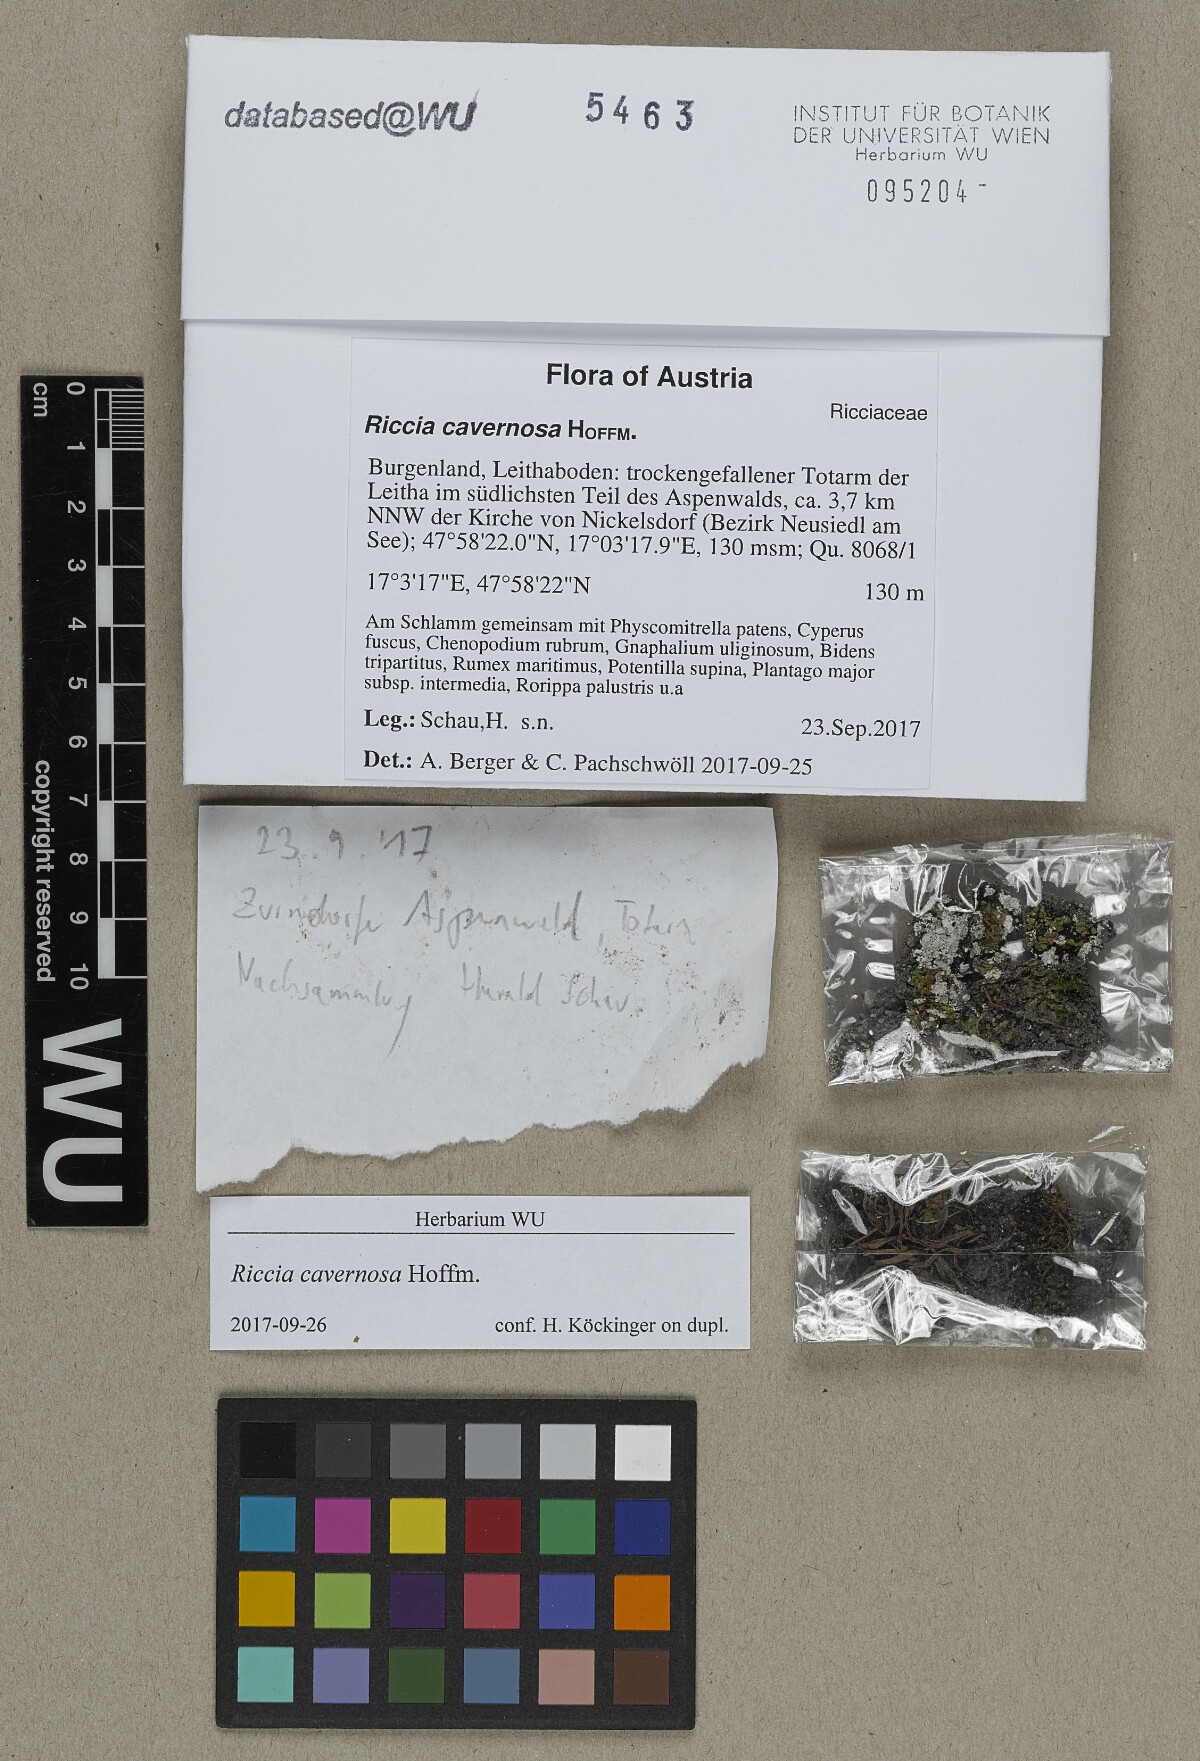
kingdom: Plantae
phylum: Marchantiophyta
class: Marchantiopsida
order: Marchantiales
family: Ricciaceae
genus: Riccia
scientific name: Riccia cavernosa
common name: Cavernous crystalwort
